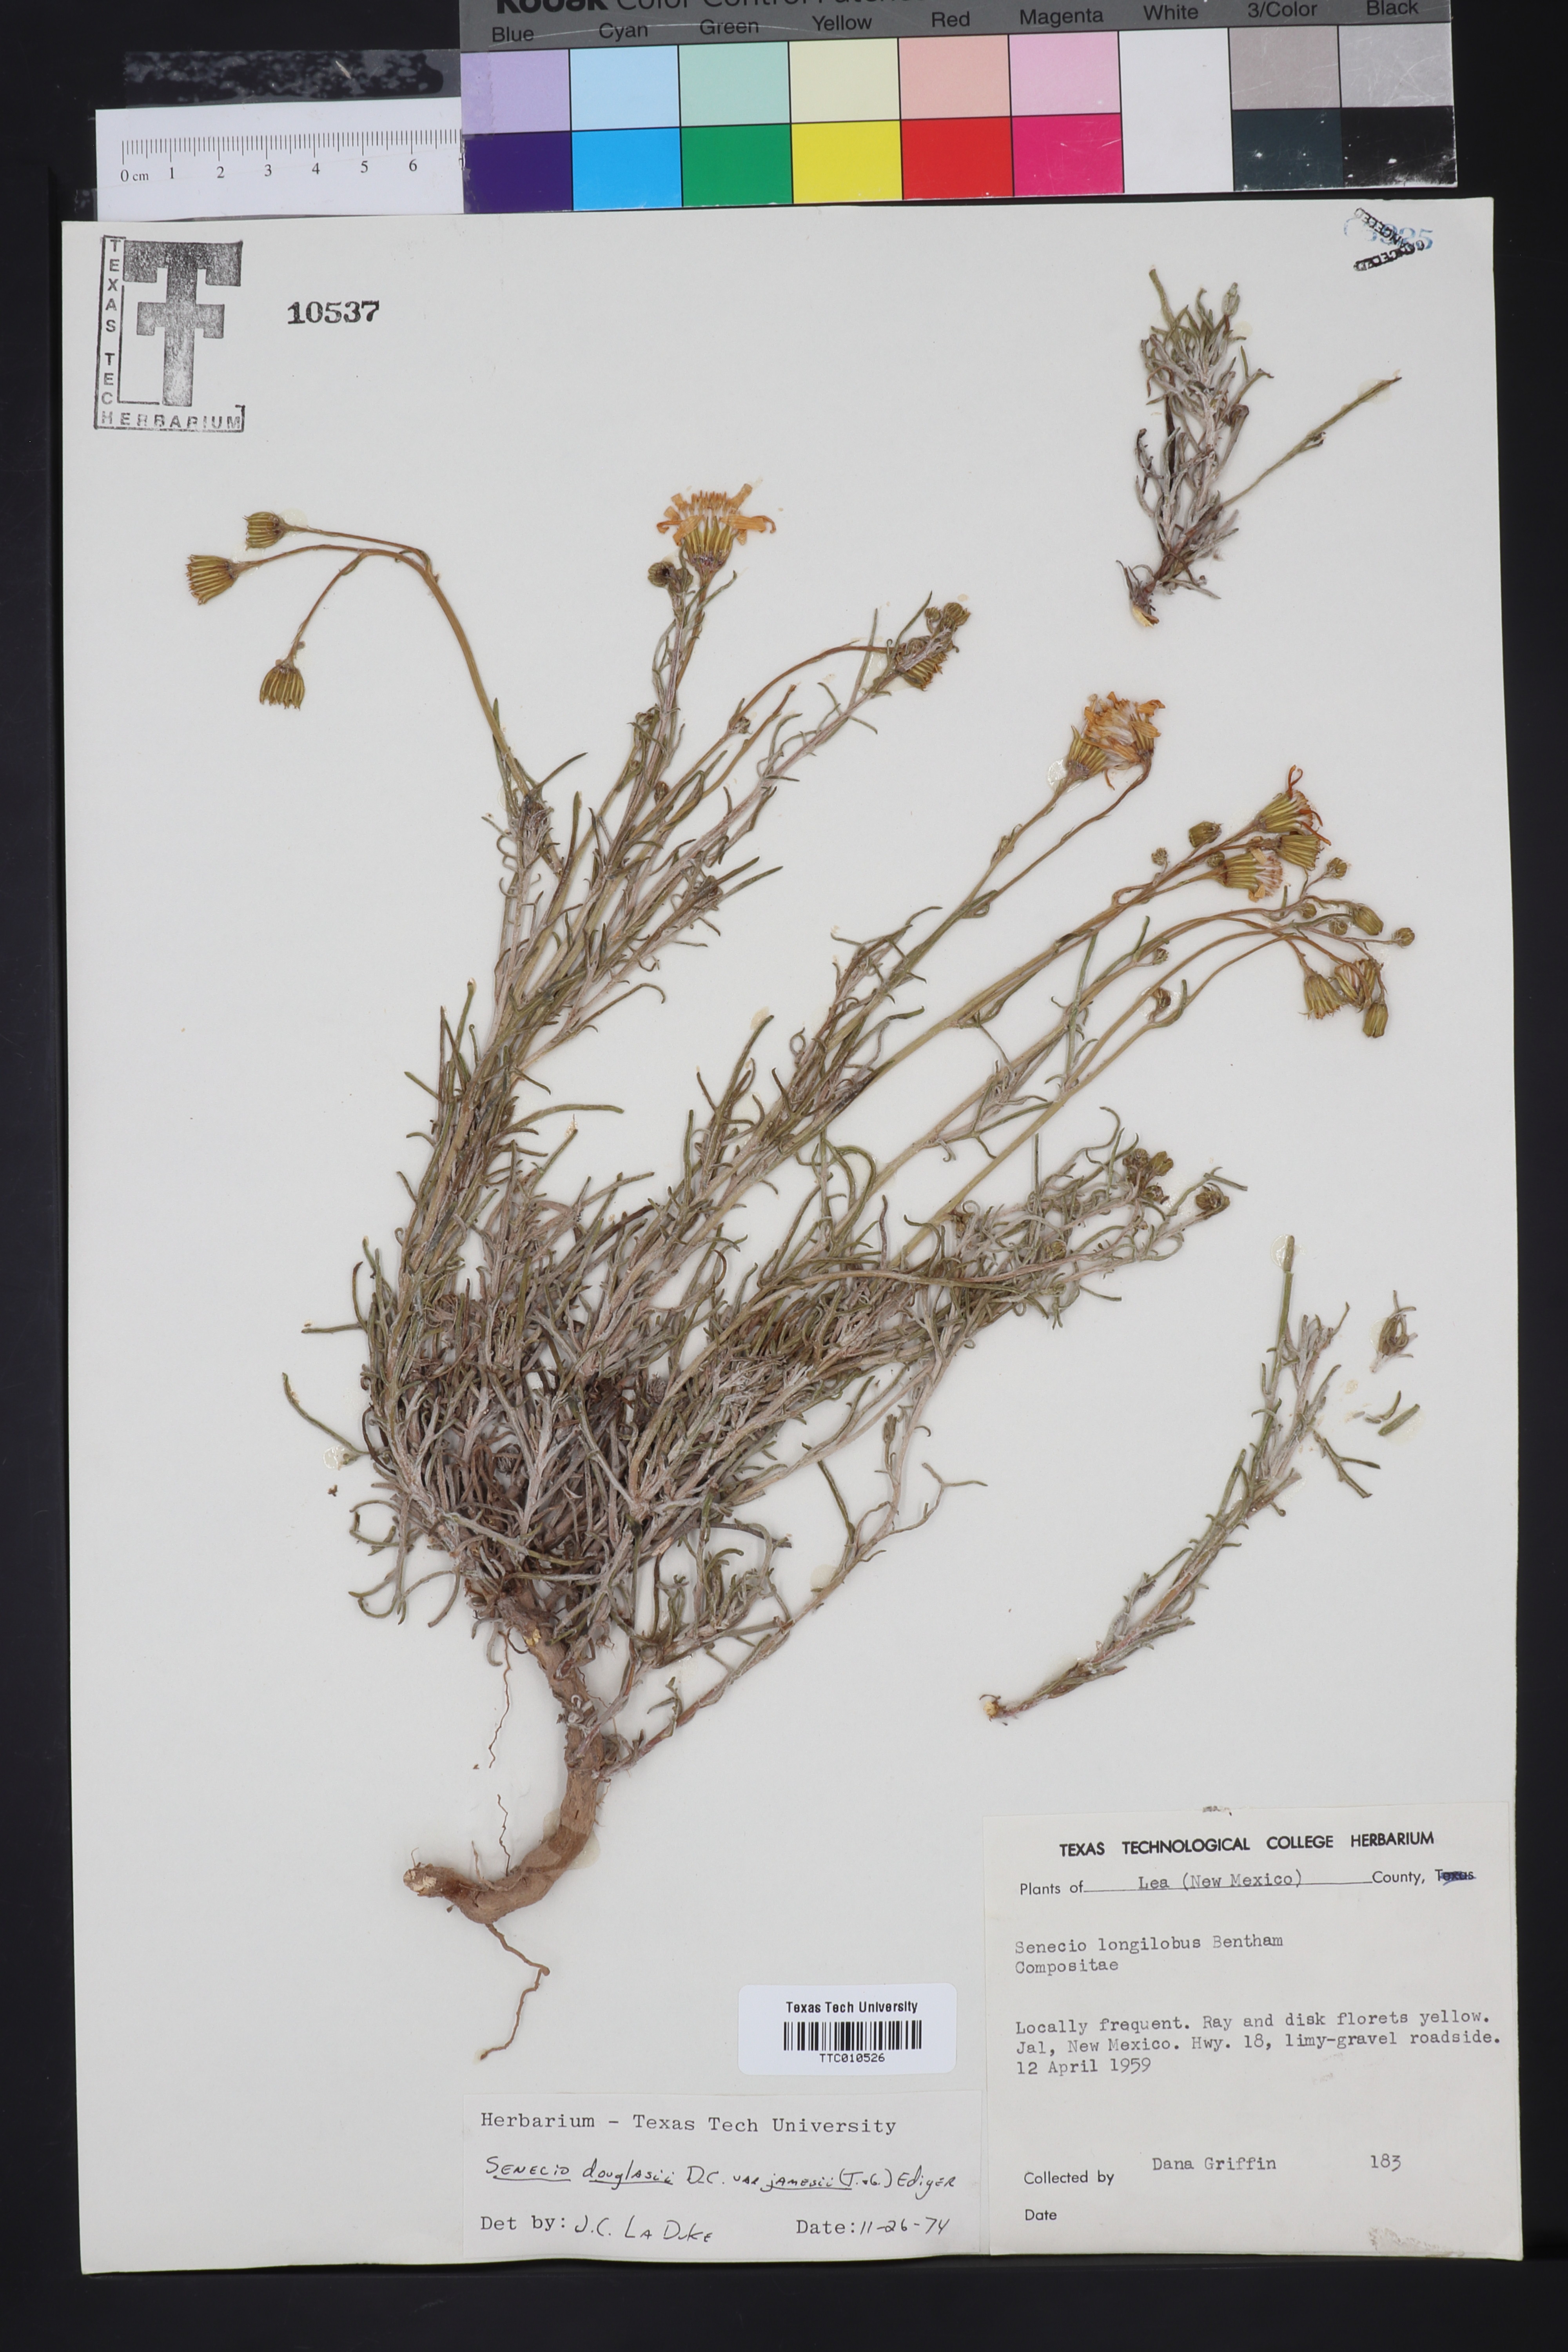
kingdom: Plantae
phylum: Tracheophyta
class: Magnoliopsida
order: Asterales
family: Asteraceae
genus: Senecio
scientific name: Senecio flaccidus
